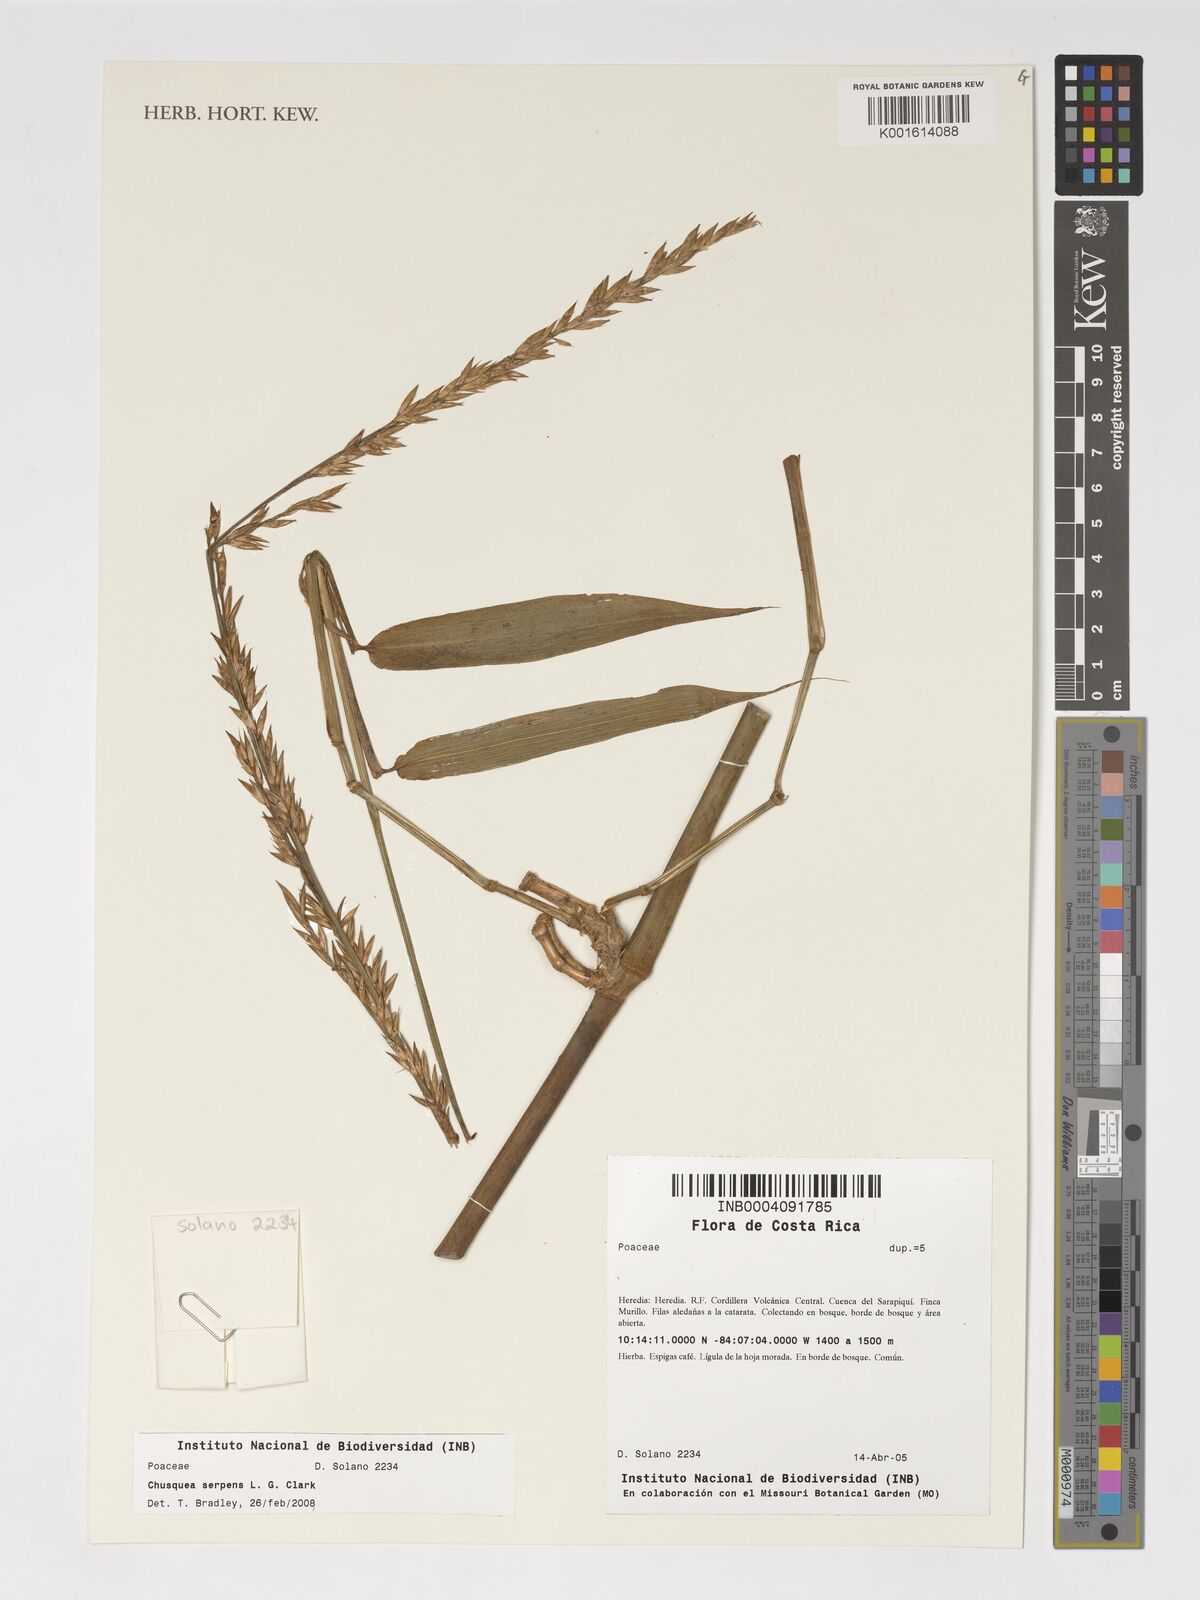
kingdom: Plantae
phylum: Tracheophyta
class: Liliopsida
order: Poales
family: Poaceae
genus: Chusquea
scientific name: Chusquea serpens
